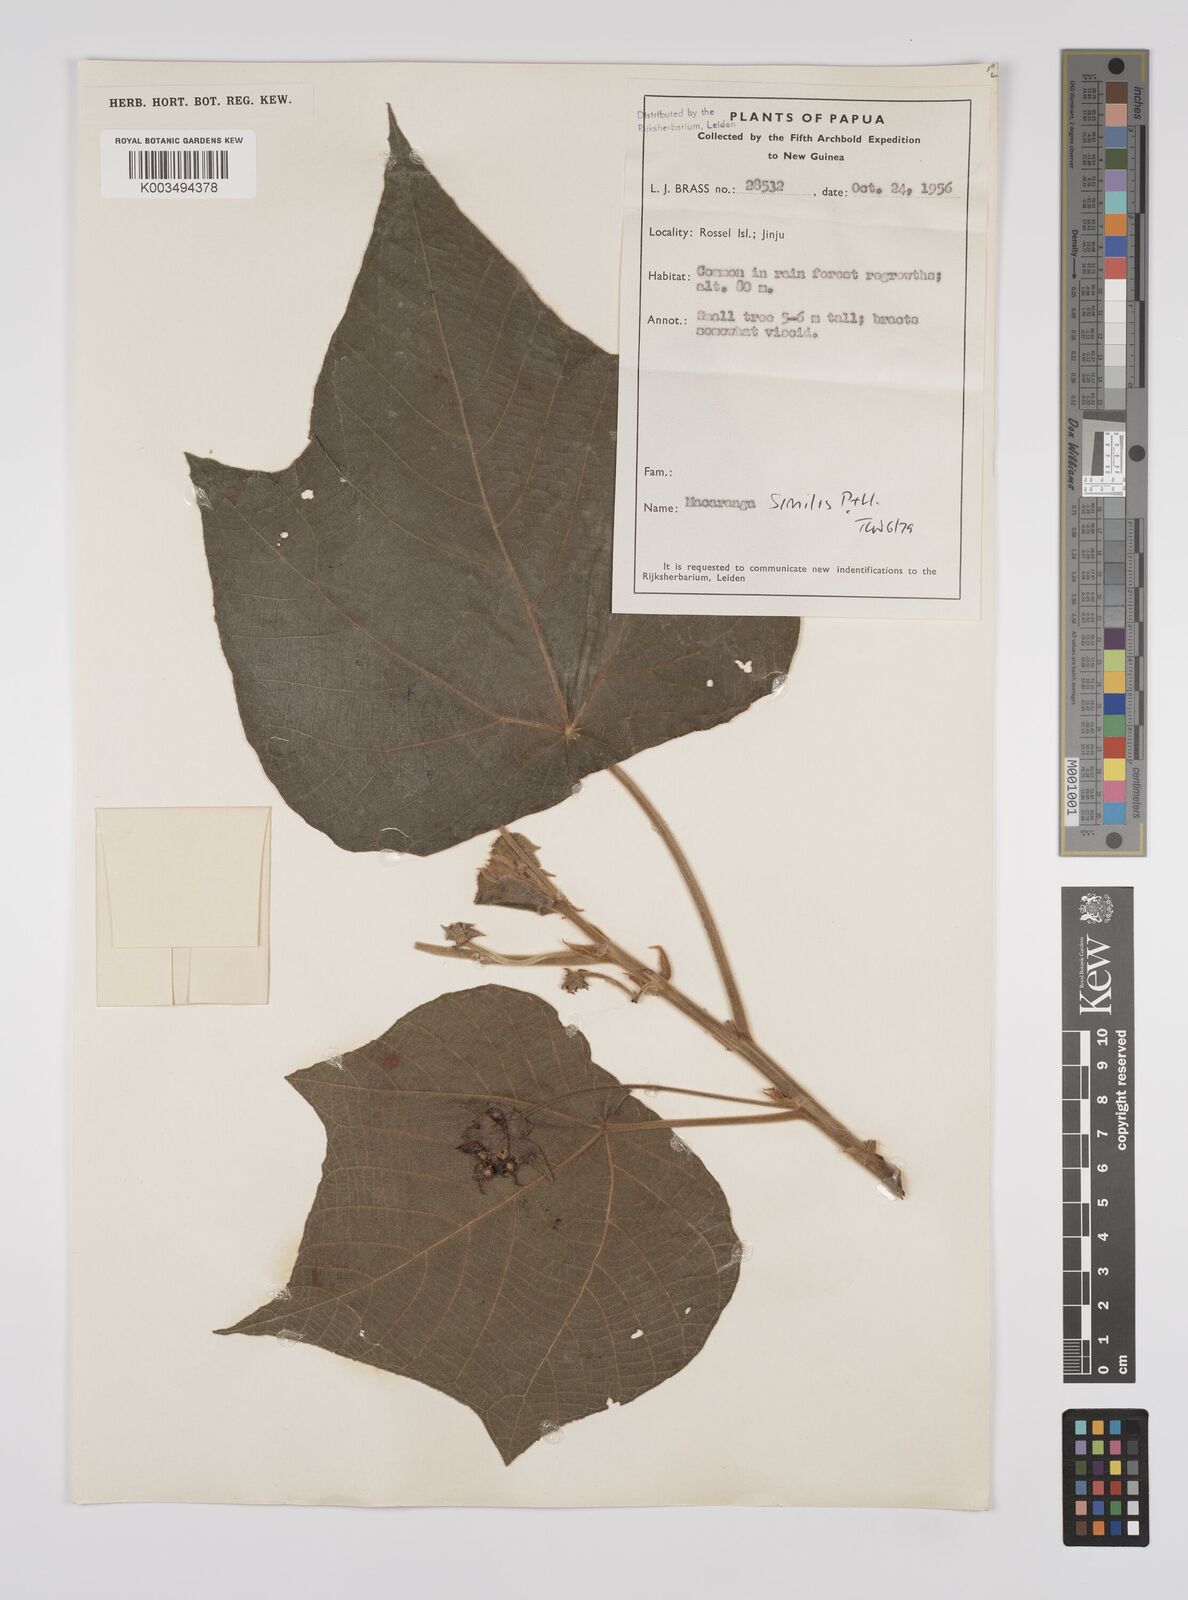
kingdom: Plantae
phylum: Tracheophyta
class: Magnoliopsida
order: Malpighiales
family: Euphorbiaceae
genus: Macaranga
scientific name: Macaranga similis
